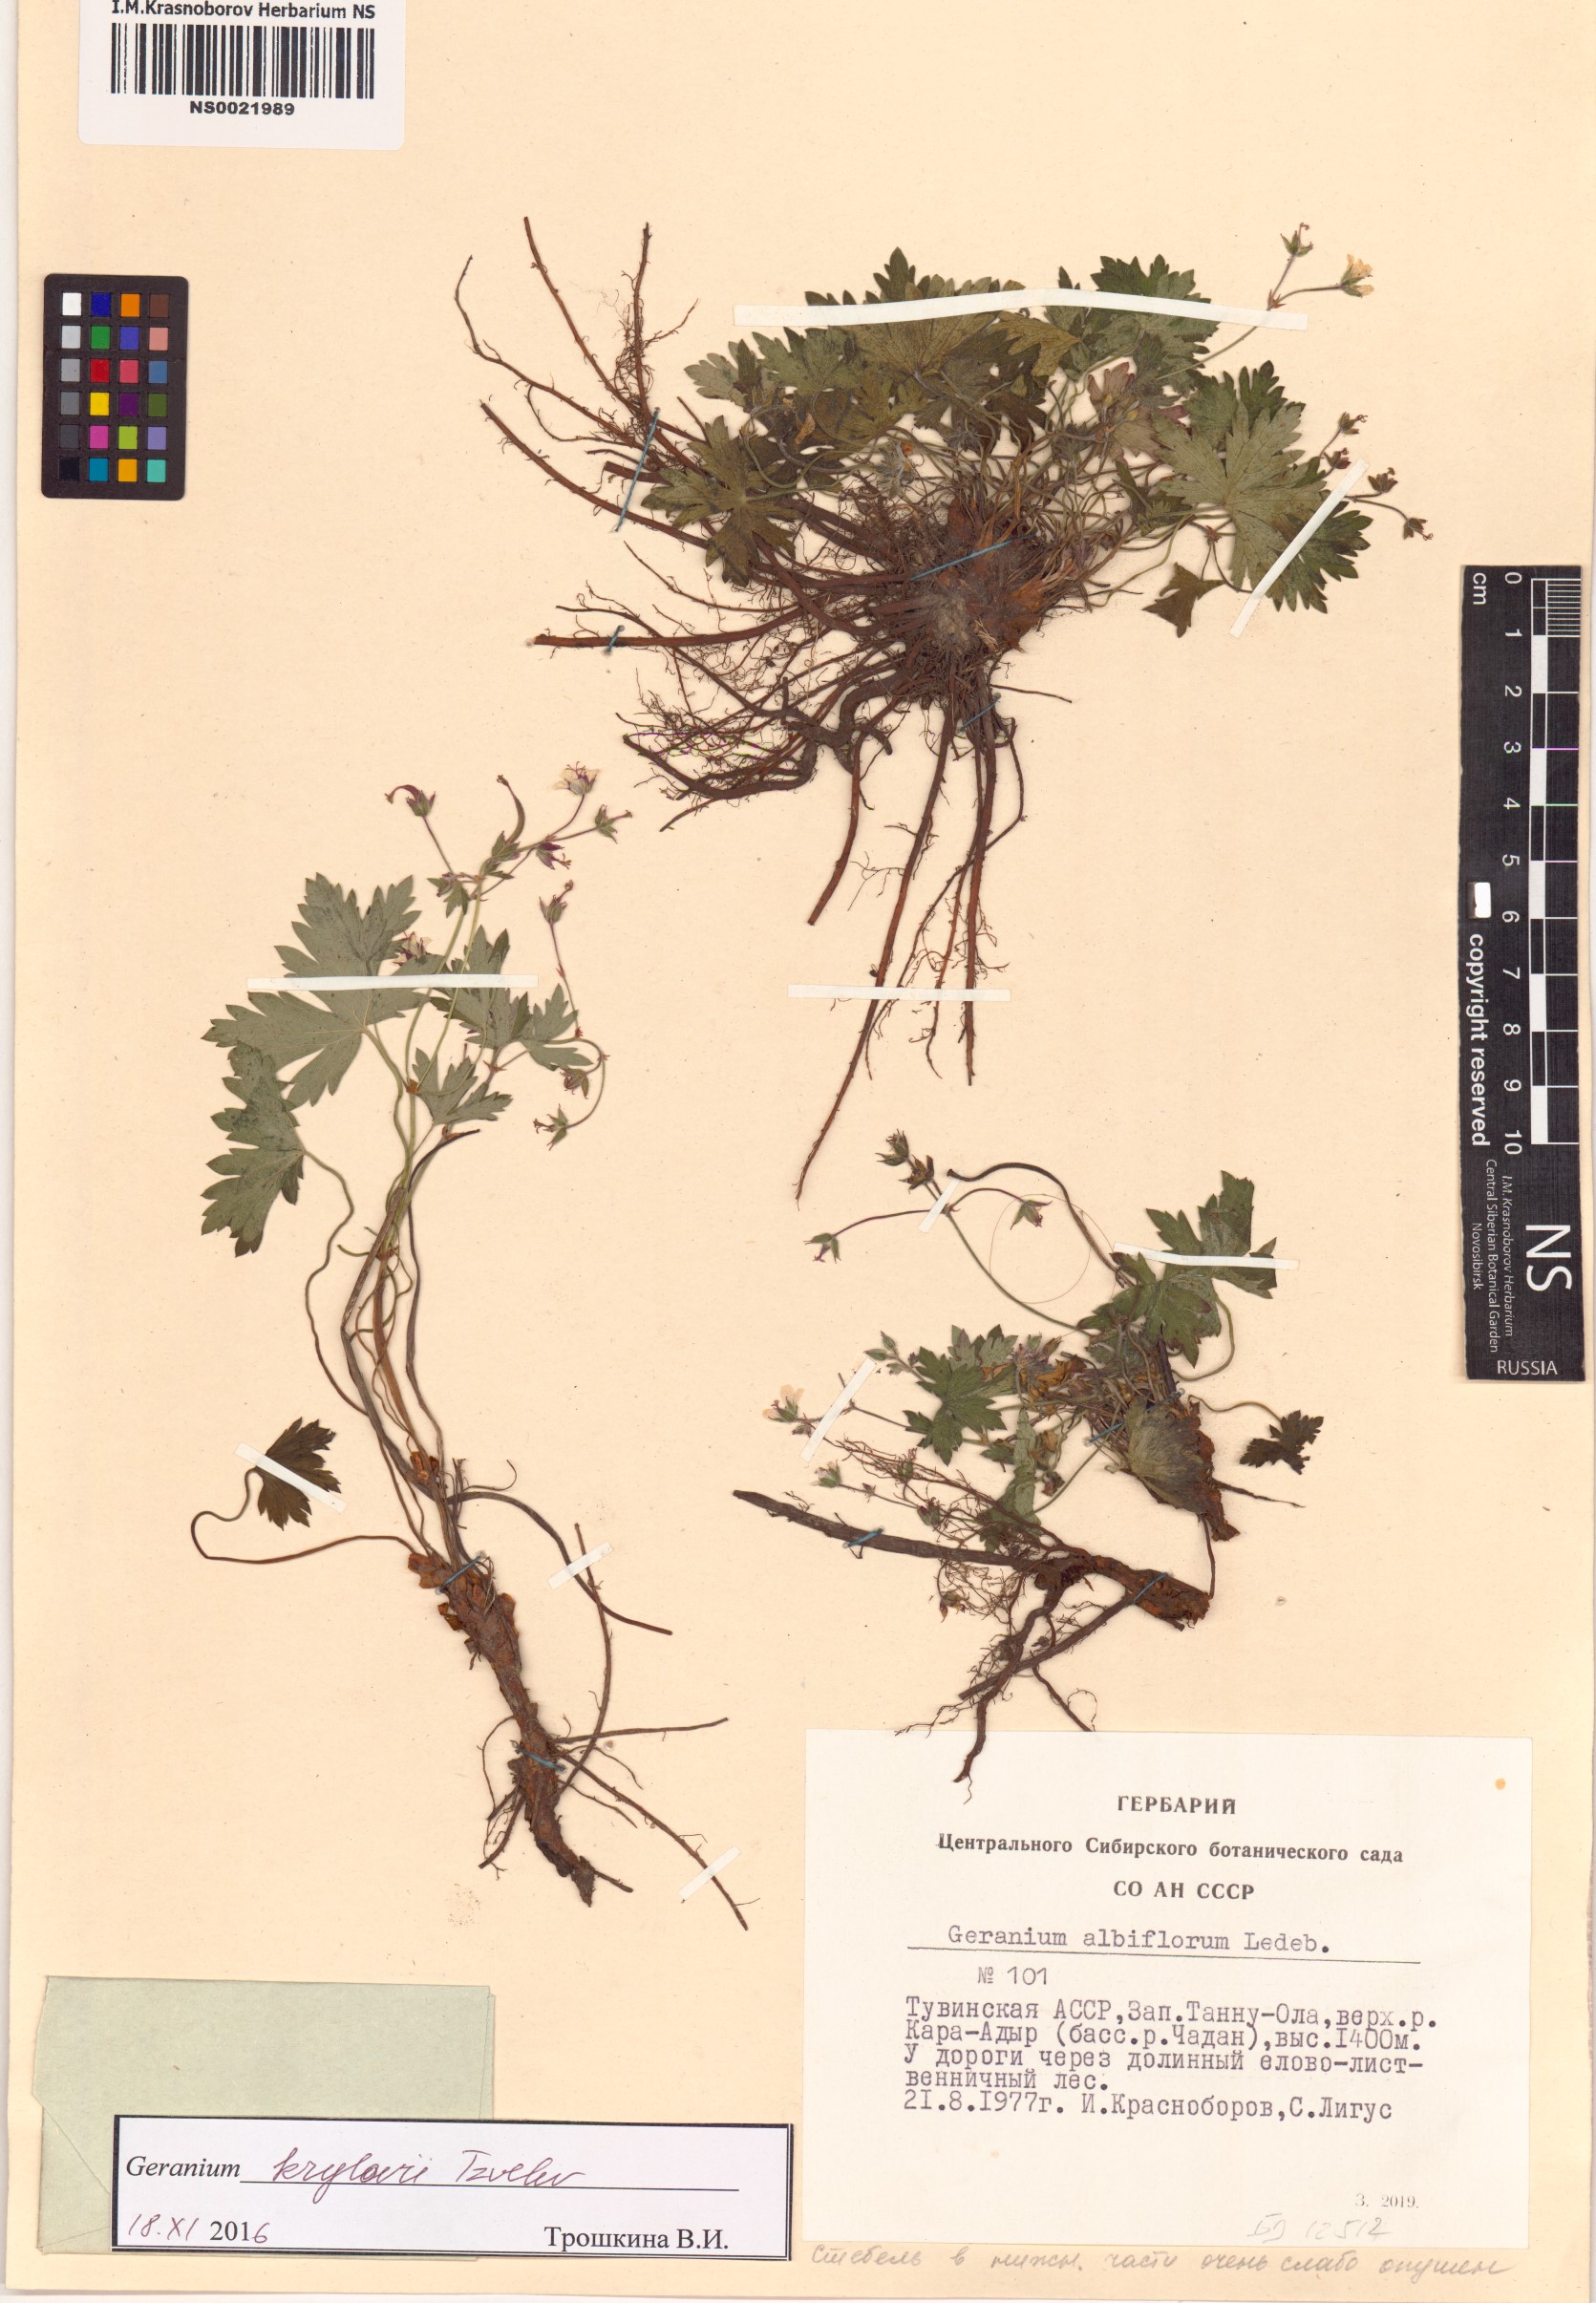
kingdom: Plantae
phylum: Tracheophyta
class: Magnoliopsida
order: Geraniales
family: Geraniaceae
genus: Geranium
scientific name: Geranium sylvaticum
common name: Wood crane's-bill
